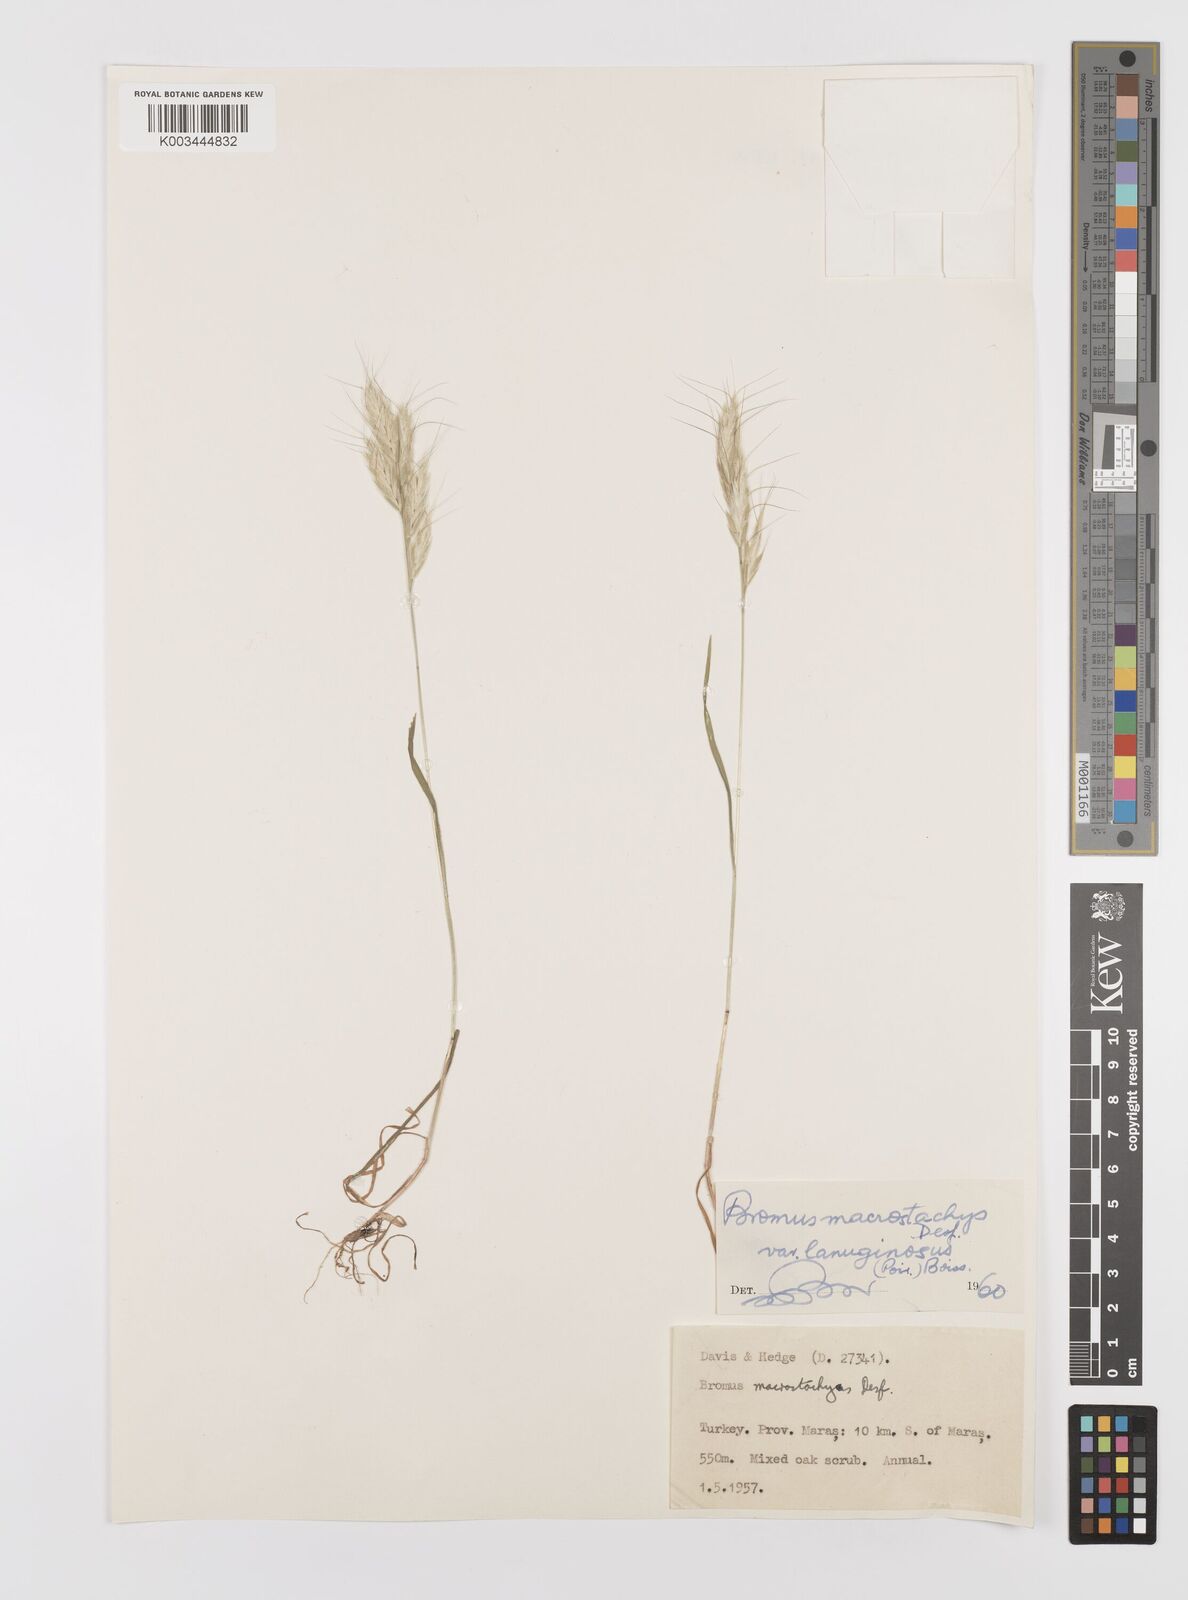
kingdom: Plantae
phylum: Tracheophyta
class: Liliopsida
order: Poales
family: Poaceae
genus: Bromus
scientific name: Bromus lanceolatus
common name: Mediterranean brome
